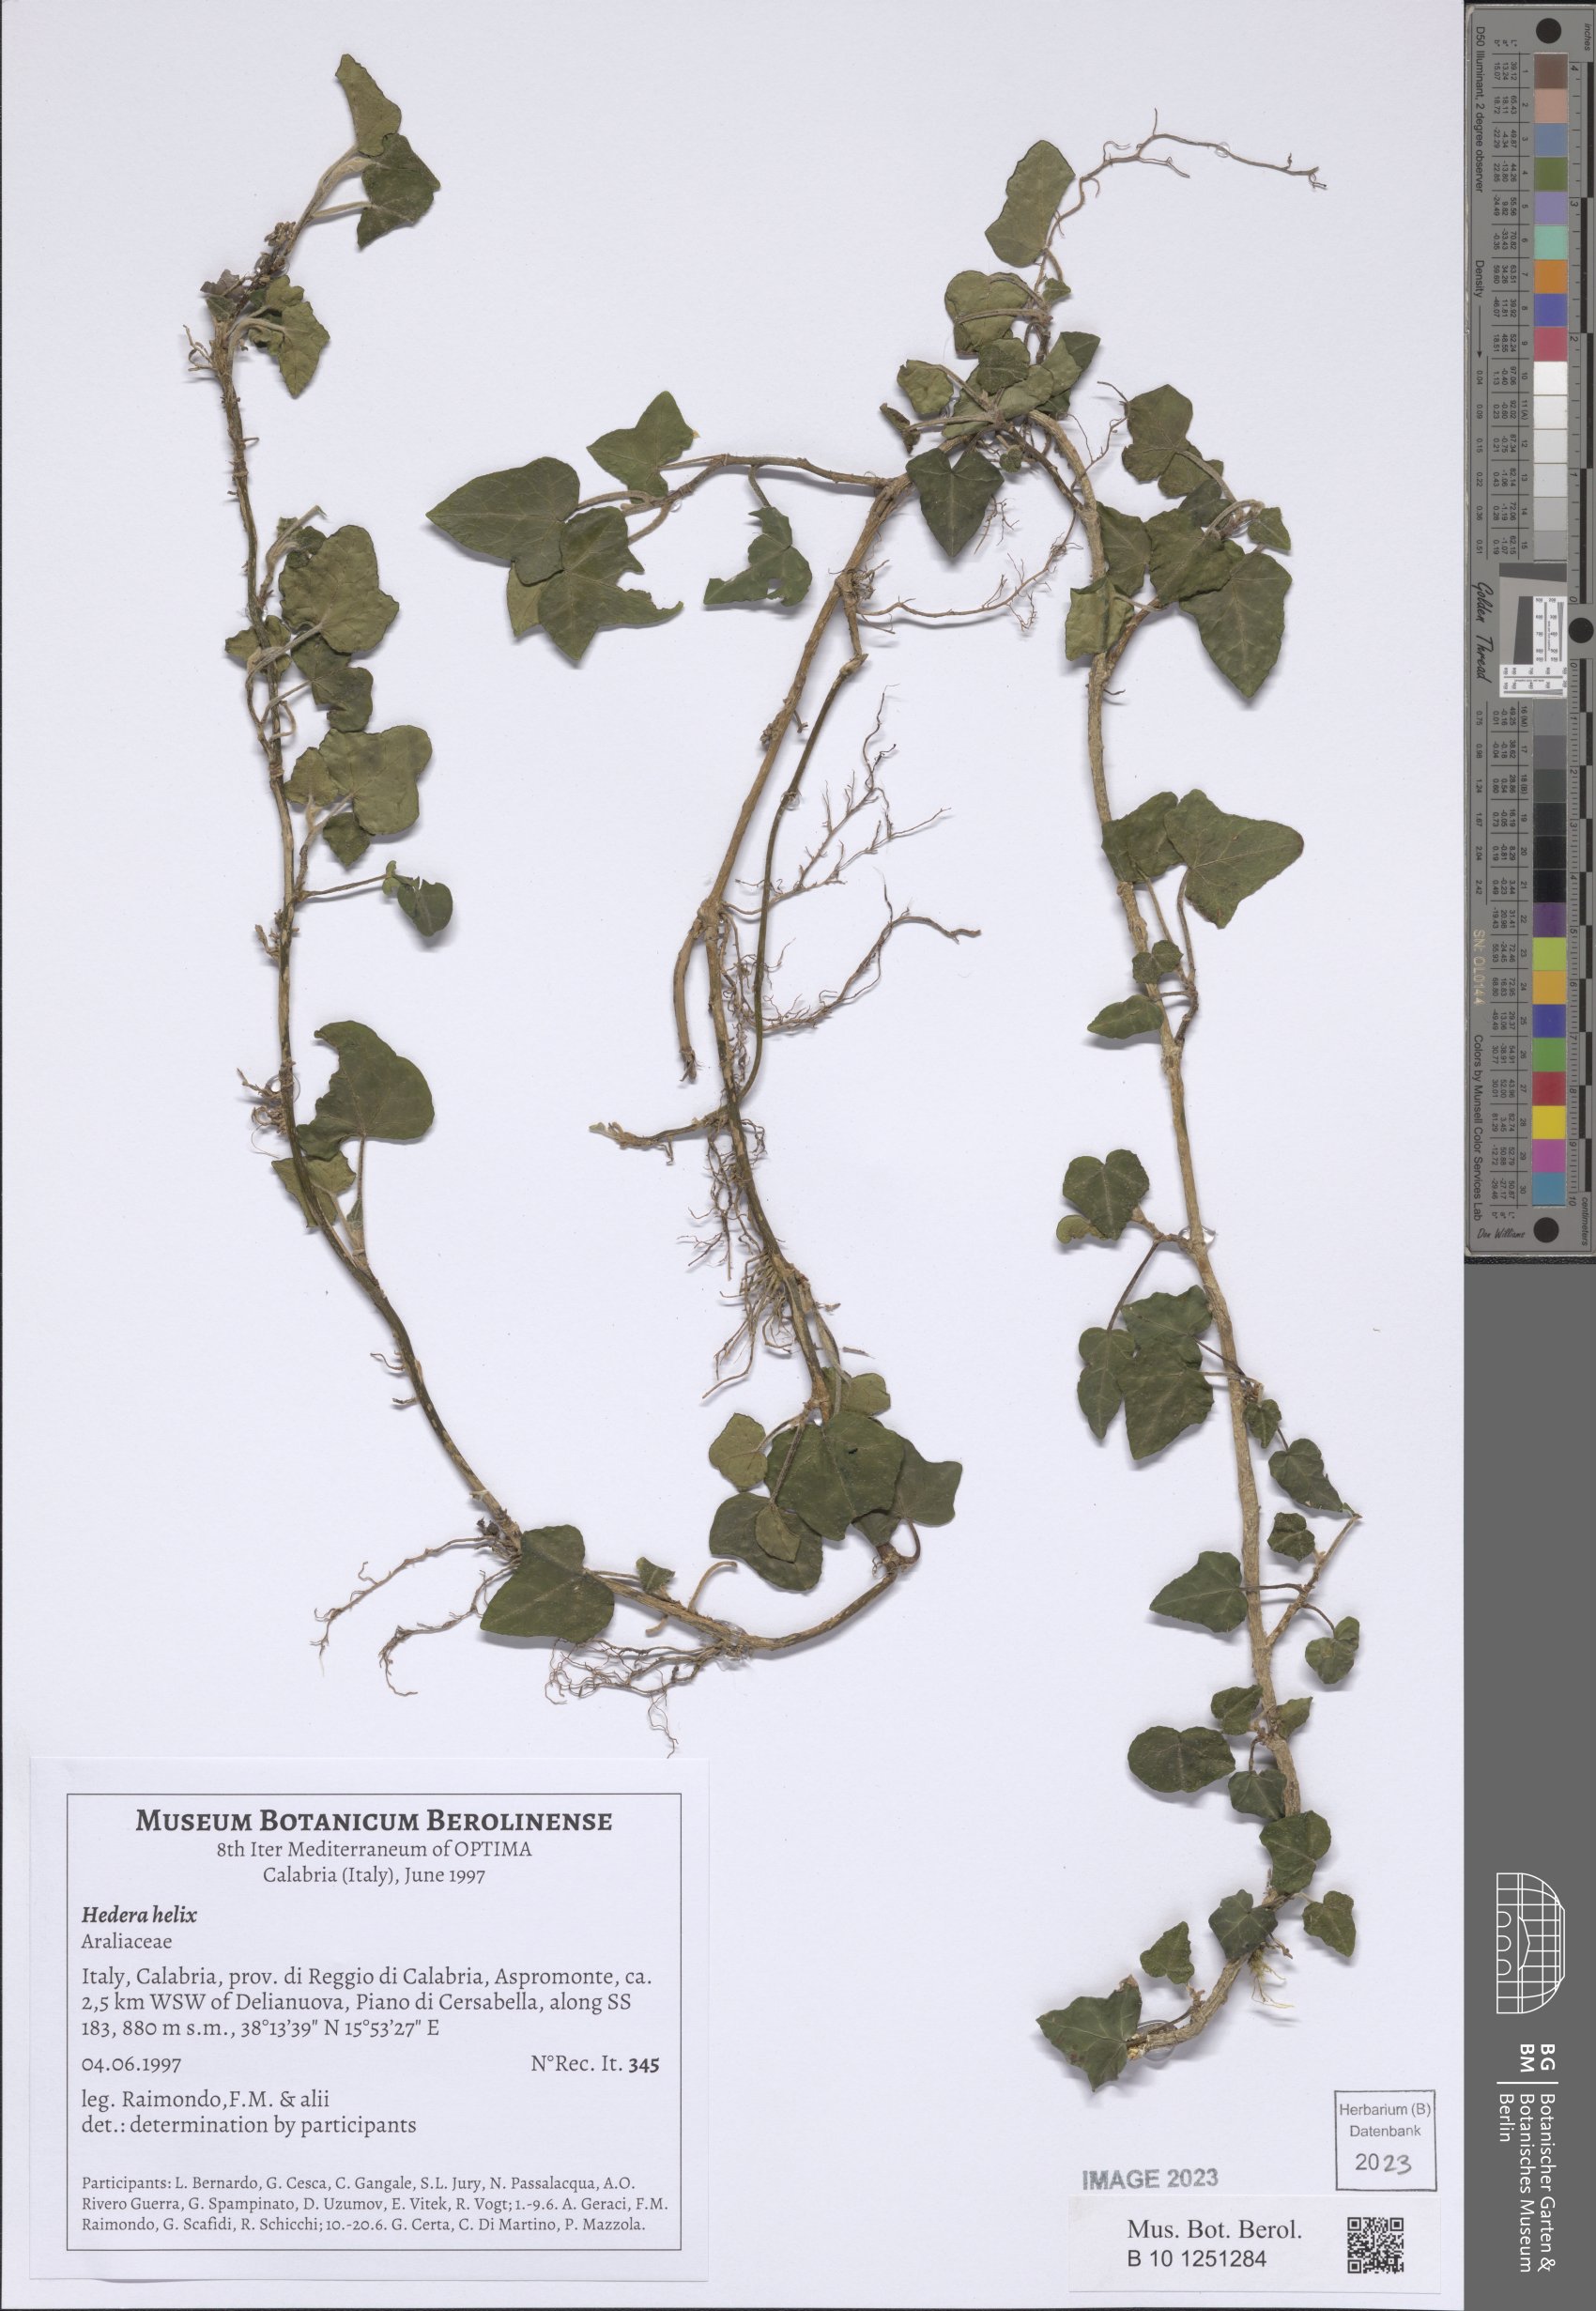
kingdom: Plantae
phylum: Tracheophyta
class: Magnoliopsida
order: Apiales
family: Araliaceae
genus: Hedera
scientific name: Hedera helix
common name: Ivy
